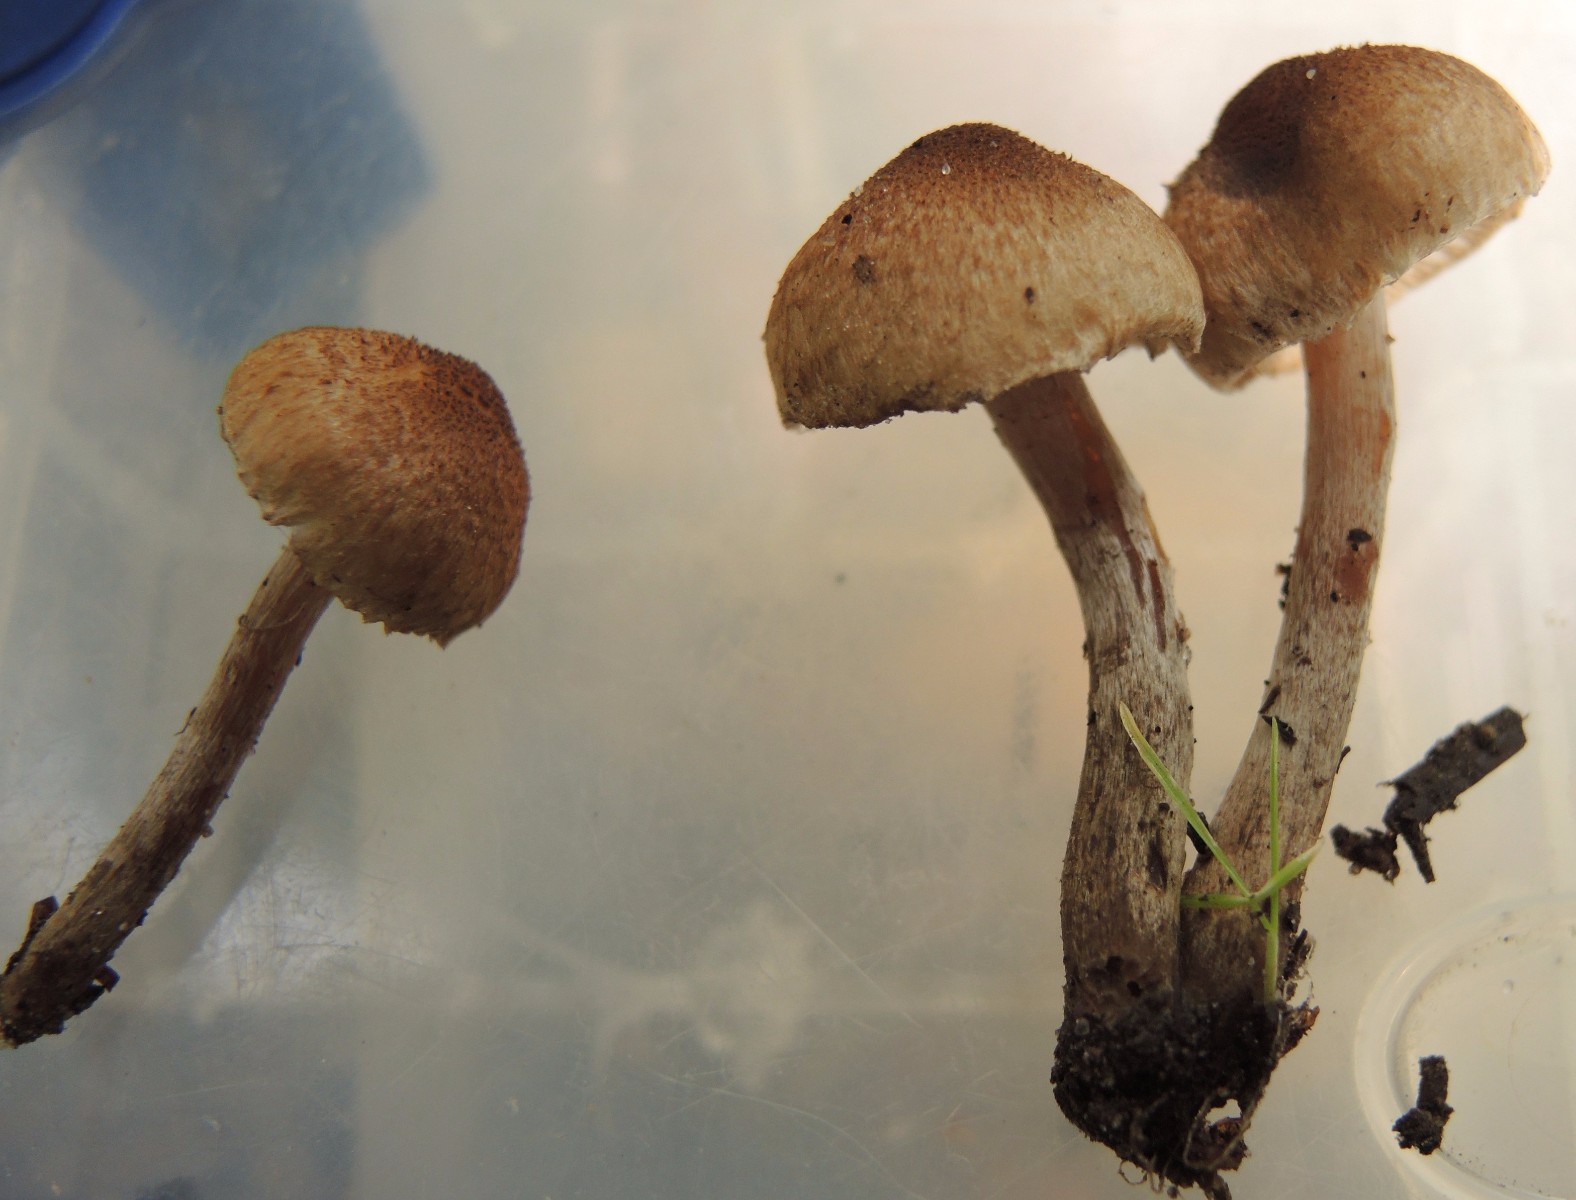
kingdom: Fungi
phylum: Basidiomycota
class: Agaricomycetes
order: Agaricales
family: Inocybaceae
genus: Inocybe
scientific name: Inocybe curvipes
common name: plæne-trævlhat
